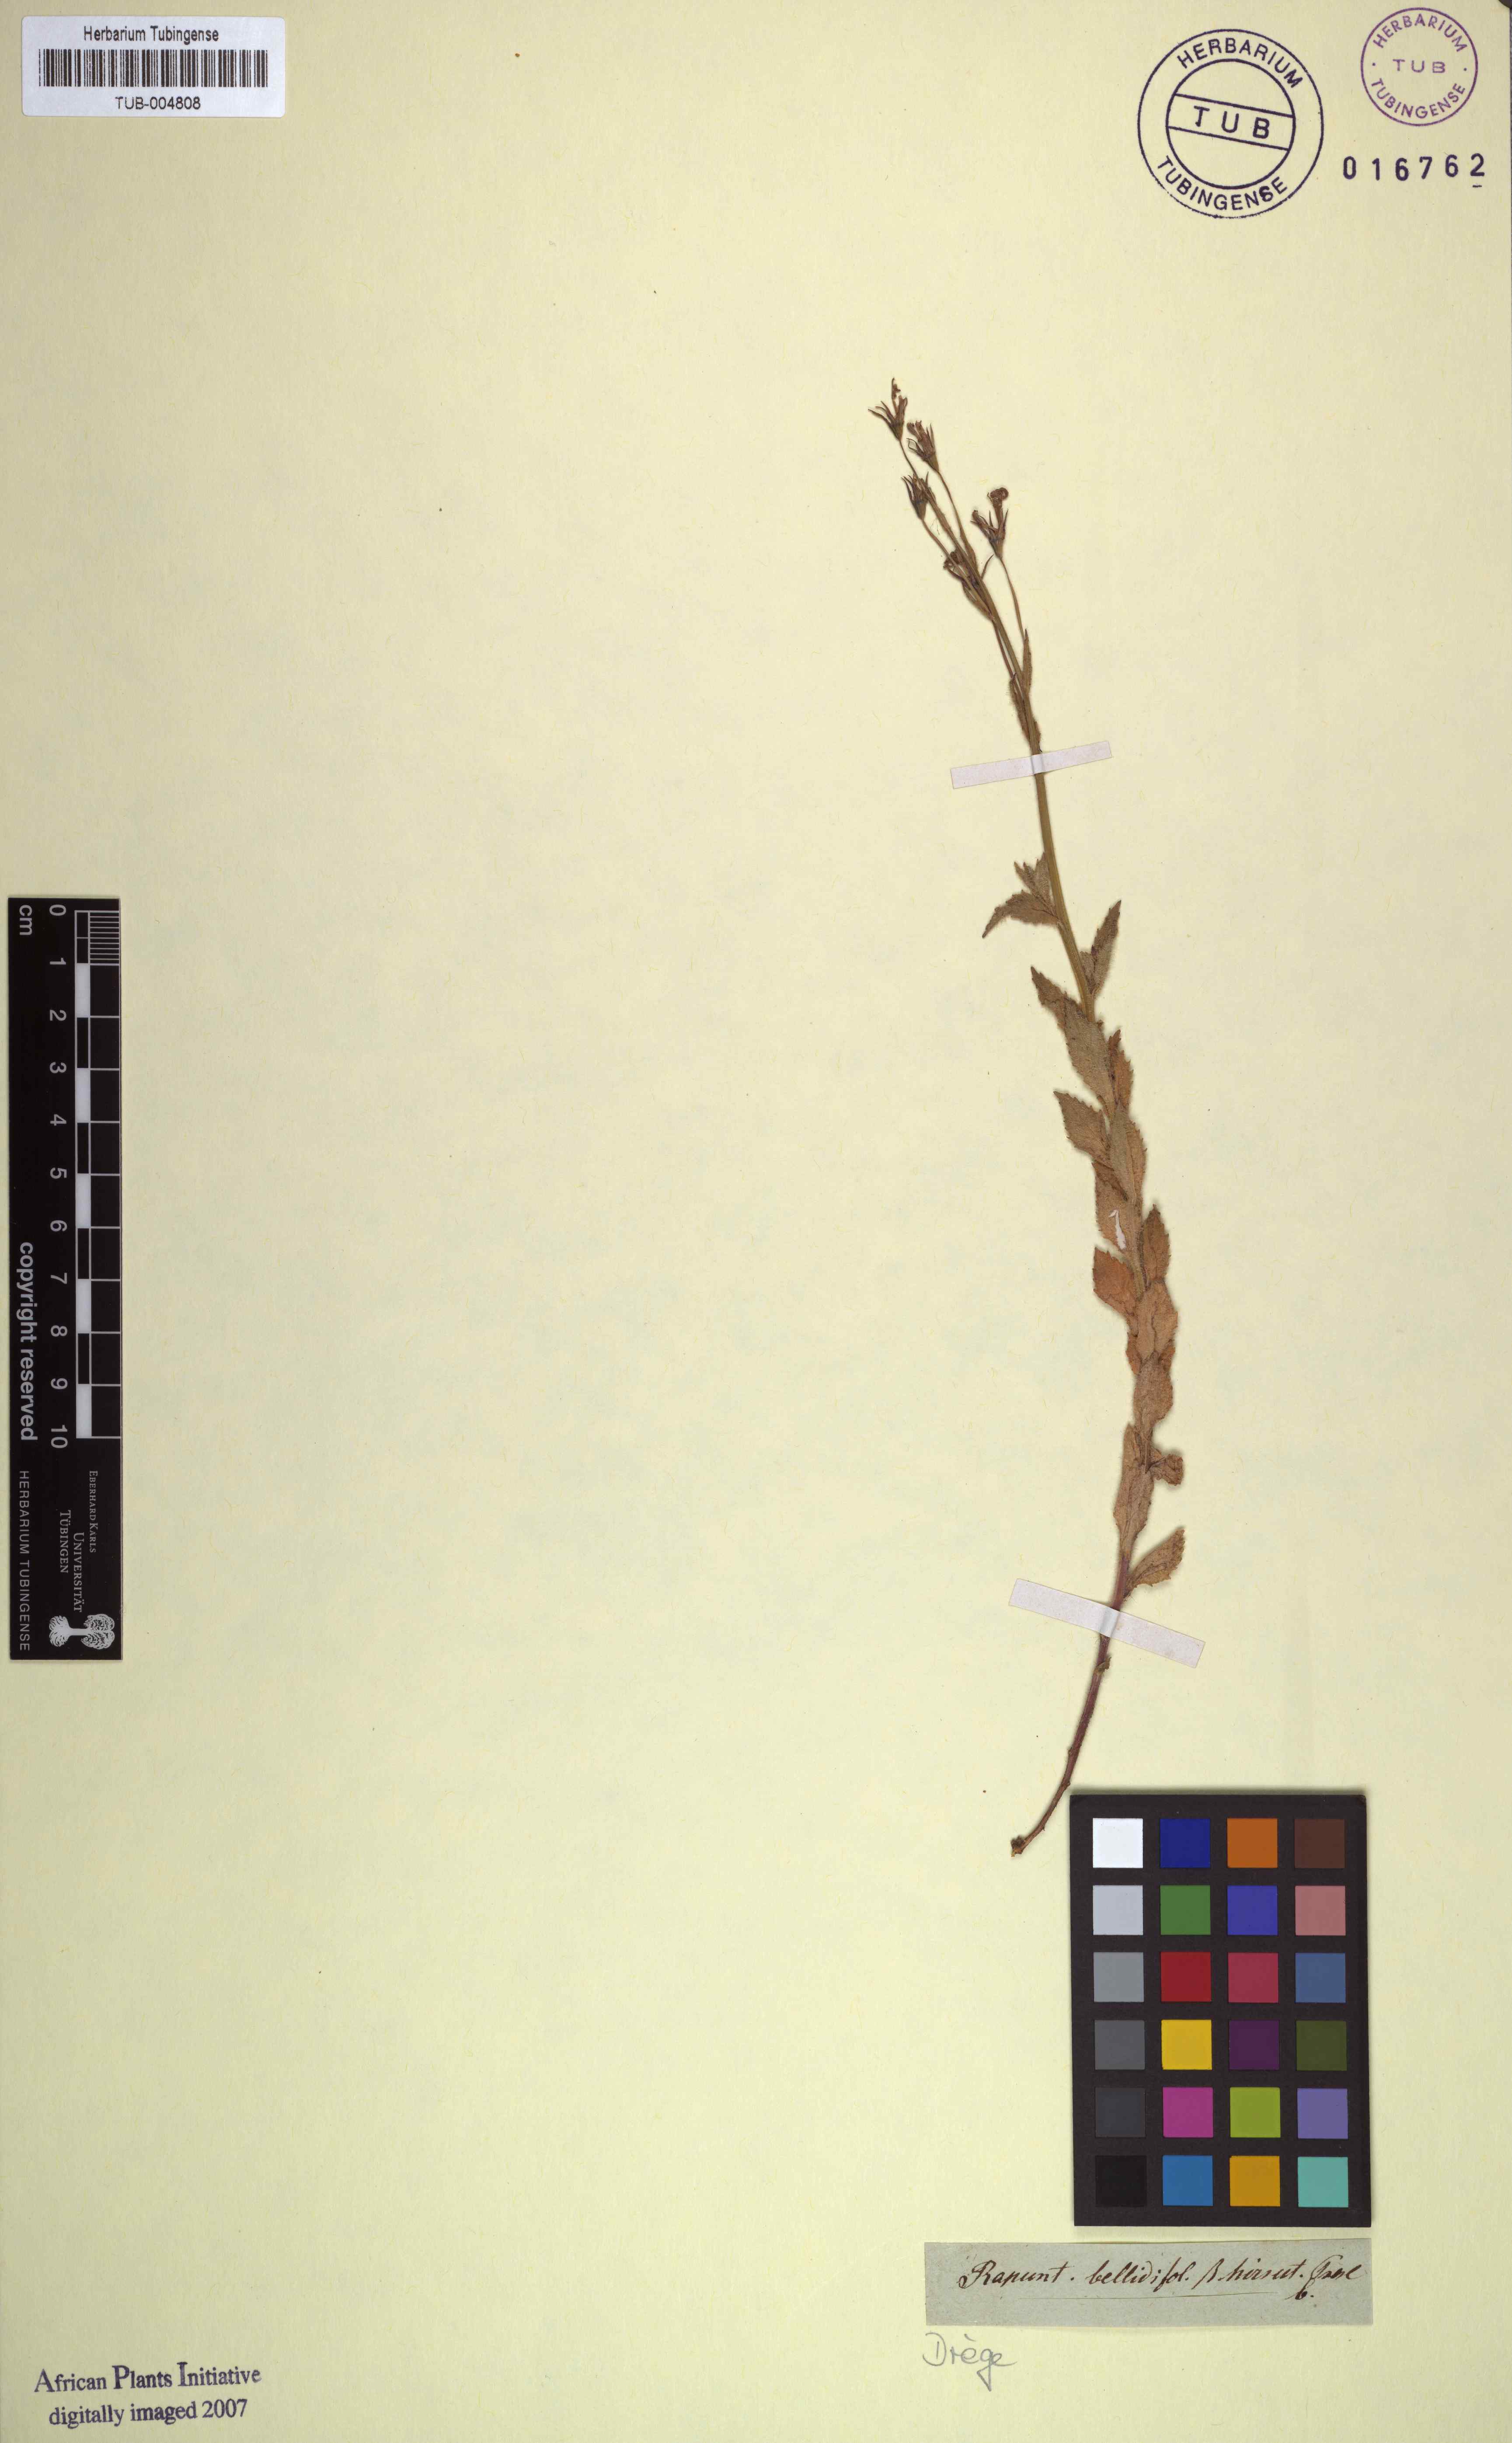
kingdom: Plantae
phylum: Tracheophyta
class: Magnoliopsida
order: Asterales
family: Campanulaceae
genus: Lobelia
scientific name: Lobelia erinus
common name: Edging lobelia
